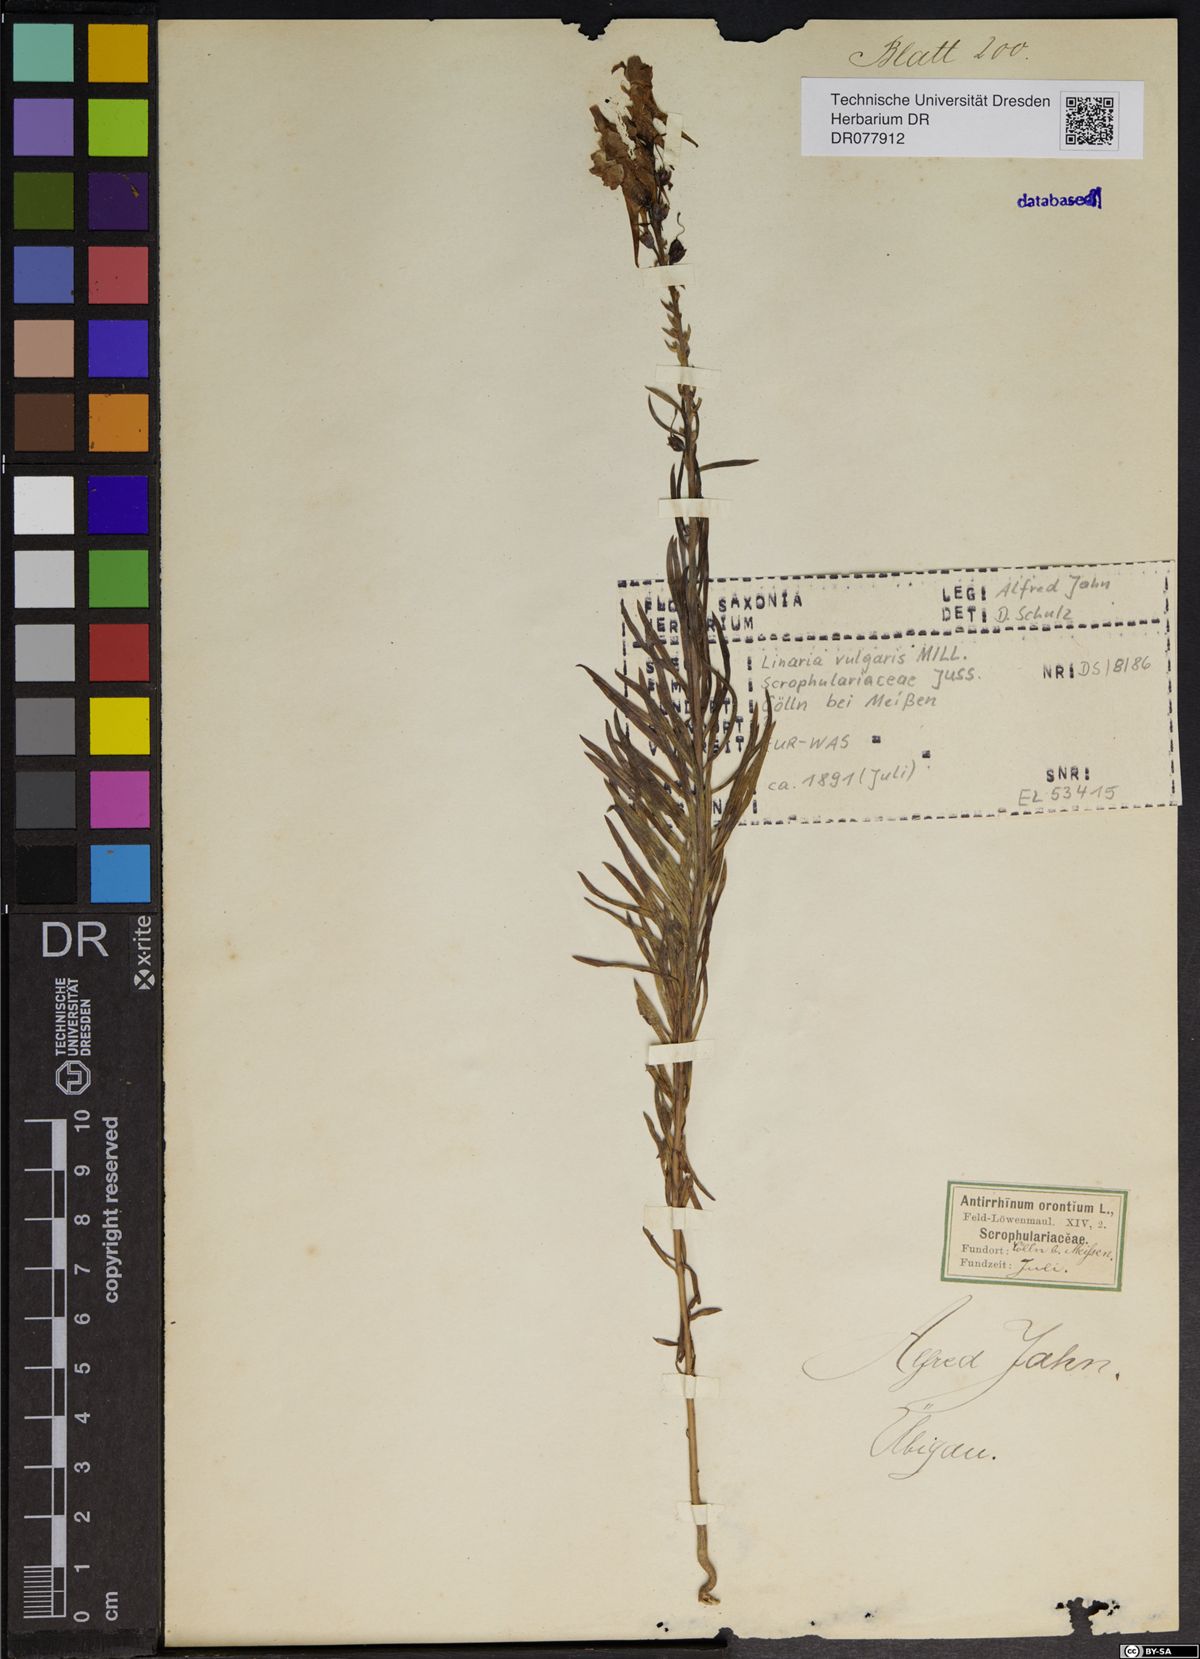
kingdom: Plantae
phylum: Tracheophyta
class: Magnoliopsida
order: Lamiales
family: Plantaginaceae
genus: Linaria
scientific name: Linaria vulgaris
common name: Butter and eggs
